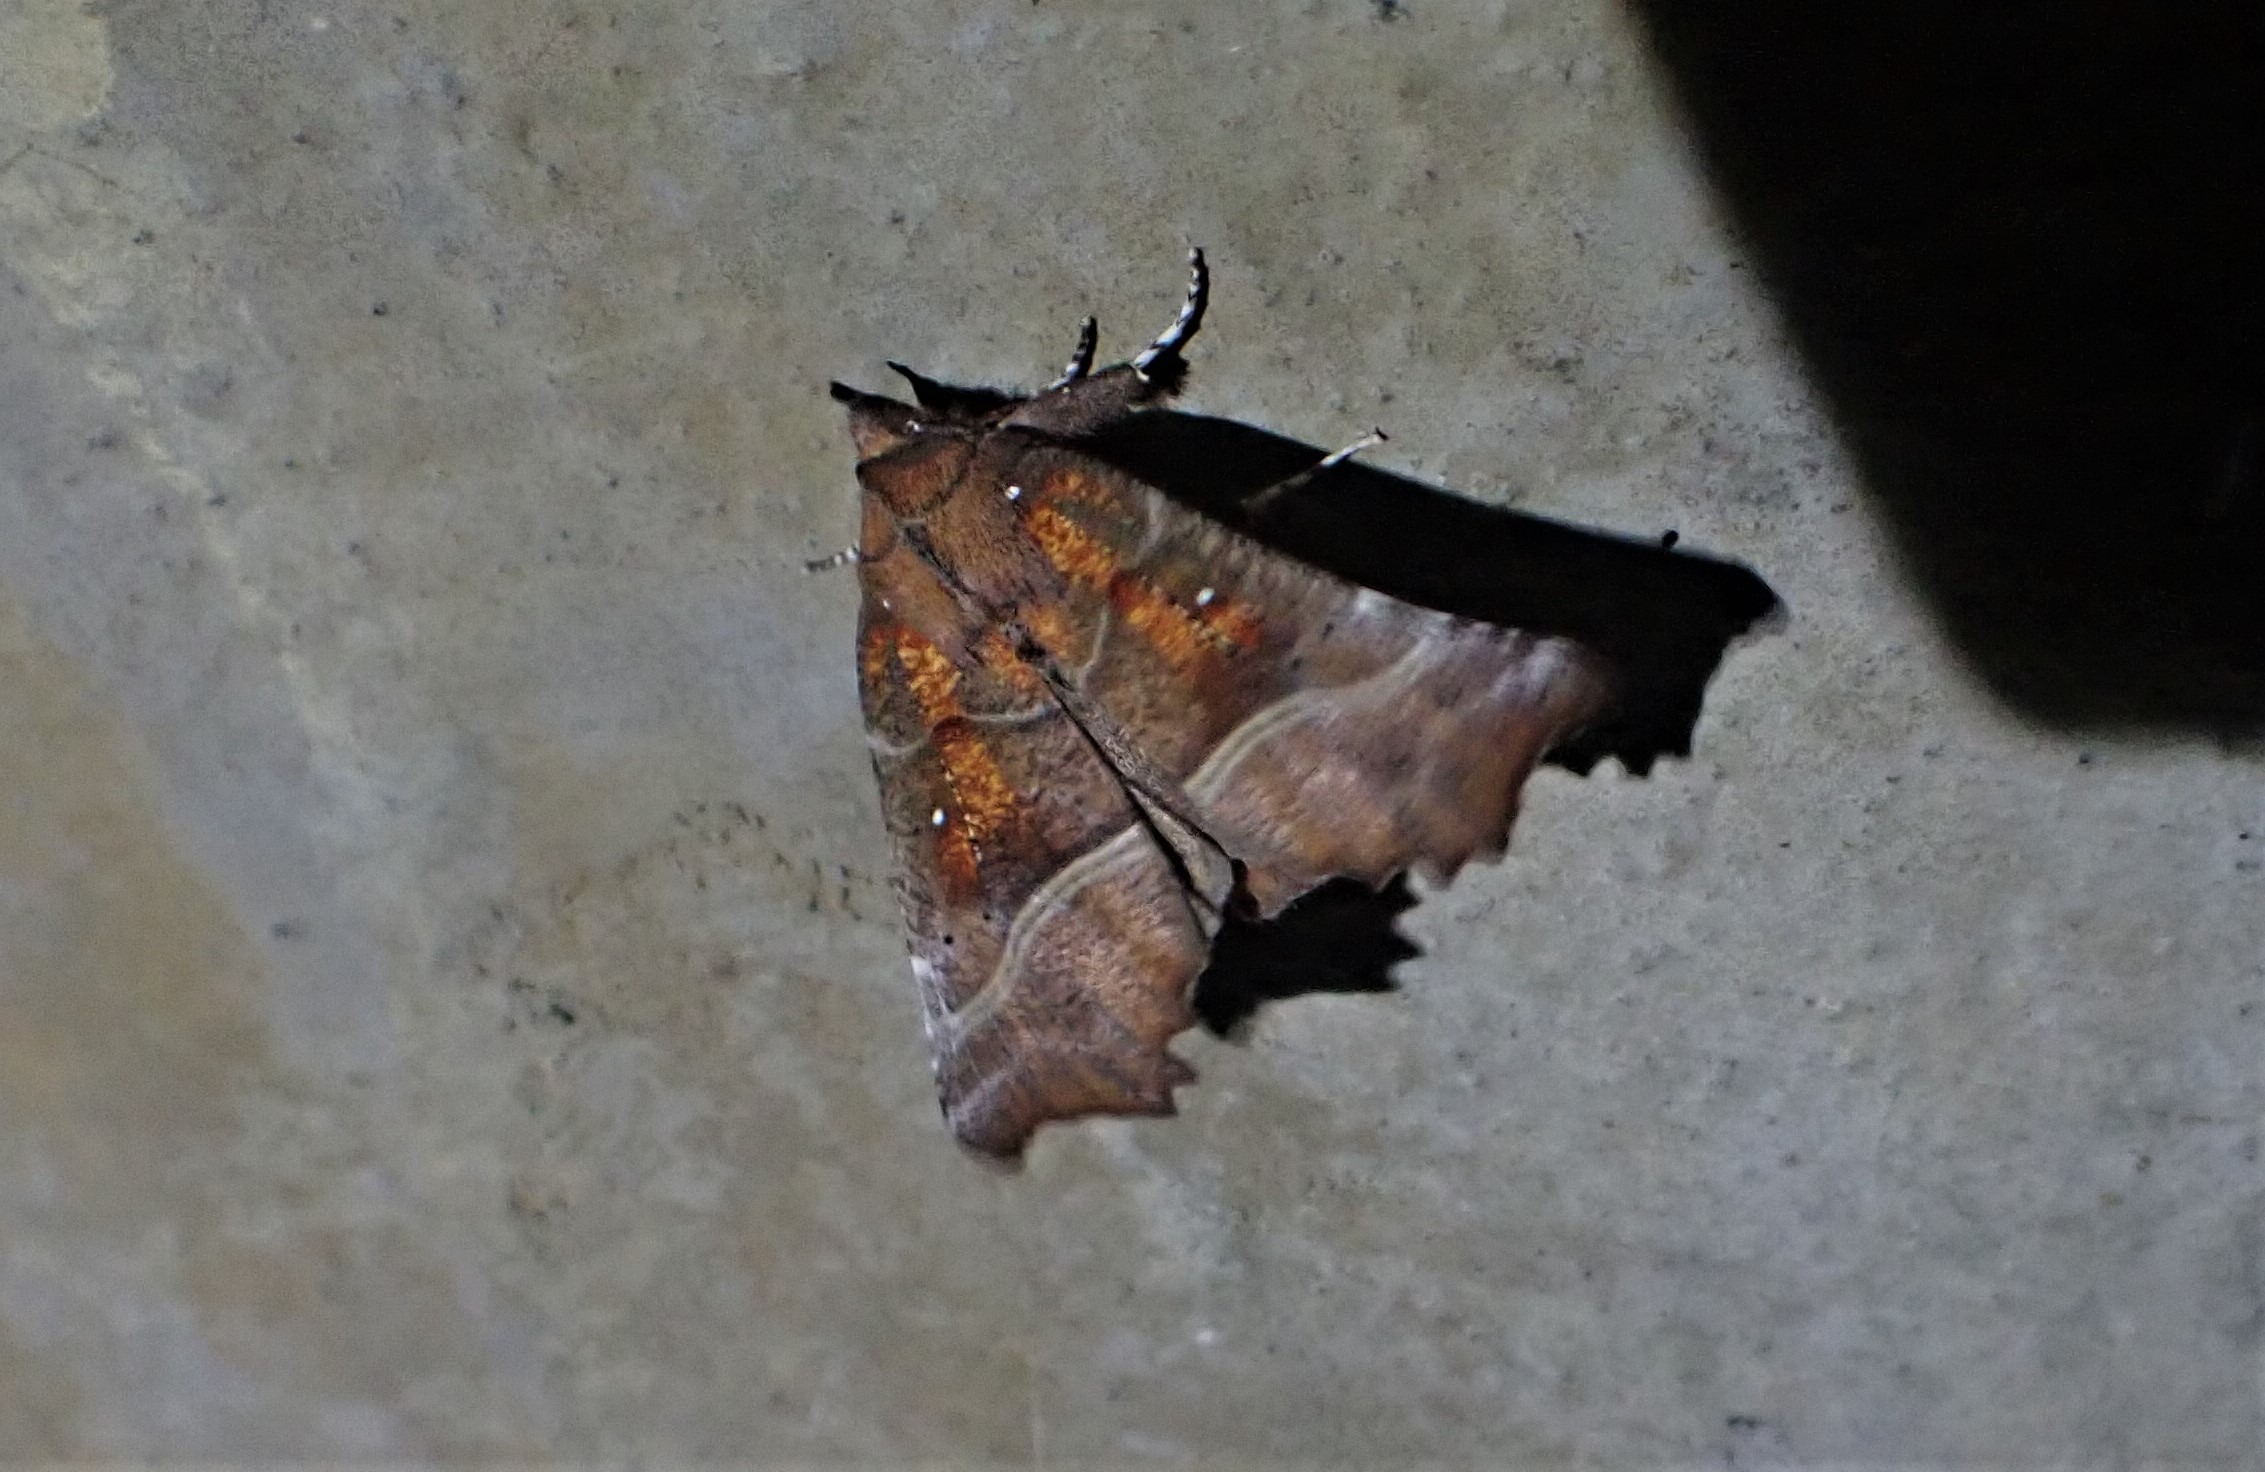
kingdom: Animalia
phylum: Arthropoda
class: Insecta
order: Lepidoptera
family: Erebidae
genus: Scoliopteryx
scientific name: Scoliopteryx libatrix
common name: Husmoderugle
